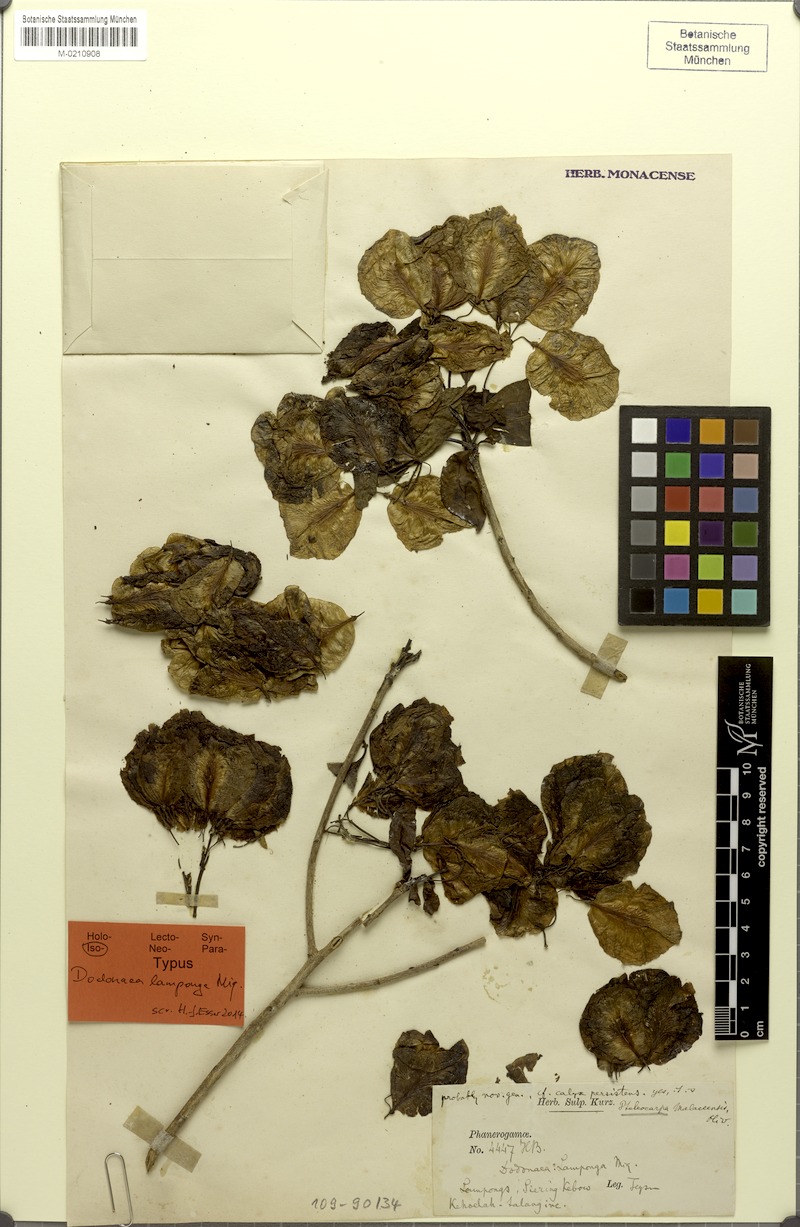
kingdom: Plantae
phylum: Tracheophyta
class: Magnoliopsida
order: Gentianales
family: Gelsemiaceae
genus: Pteleocarpa
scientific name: Pteleocarpa lamponga
